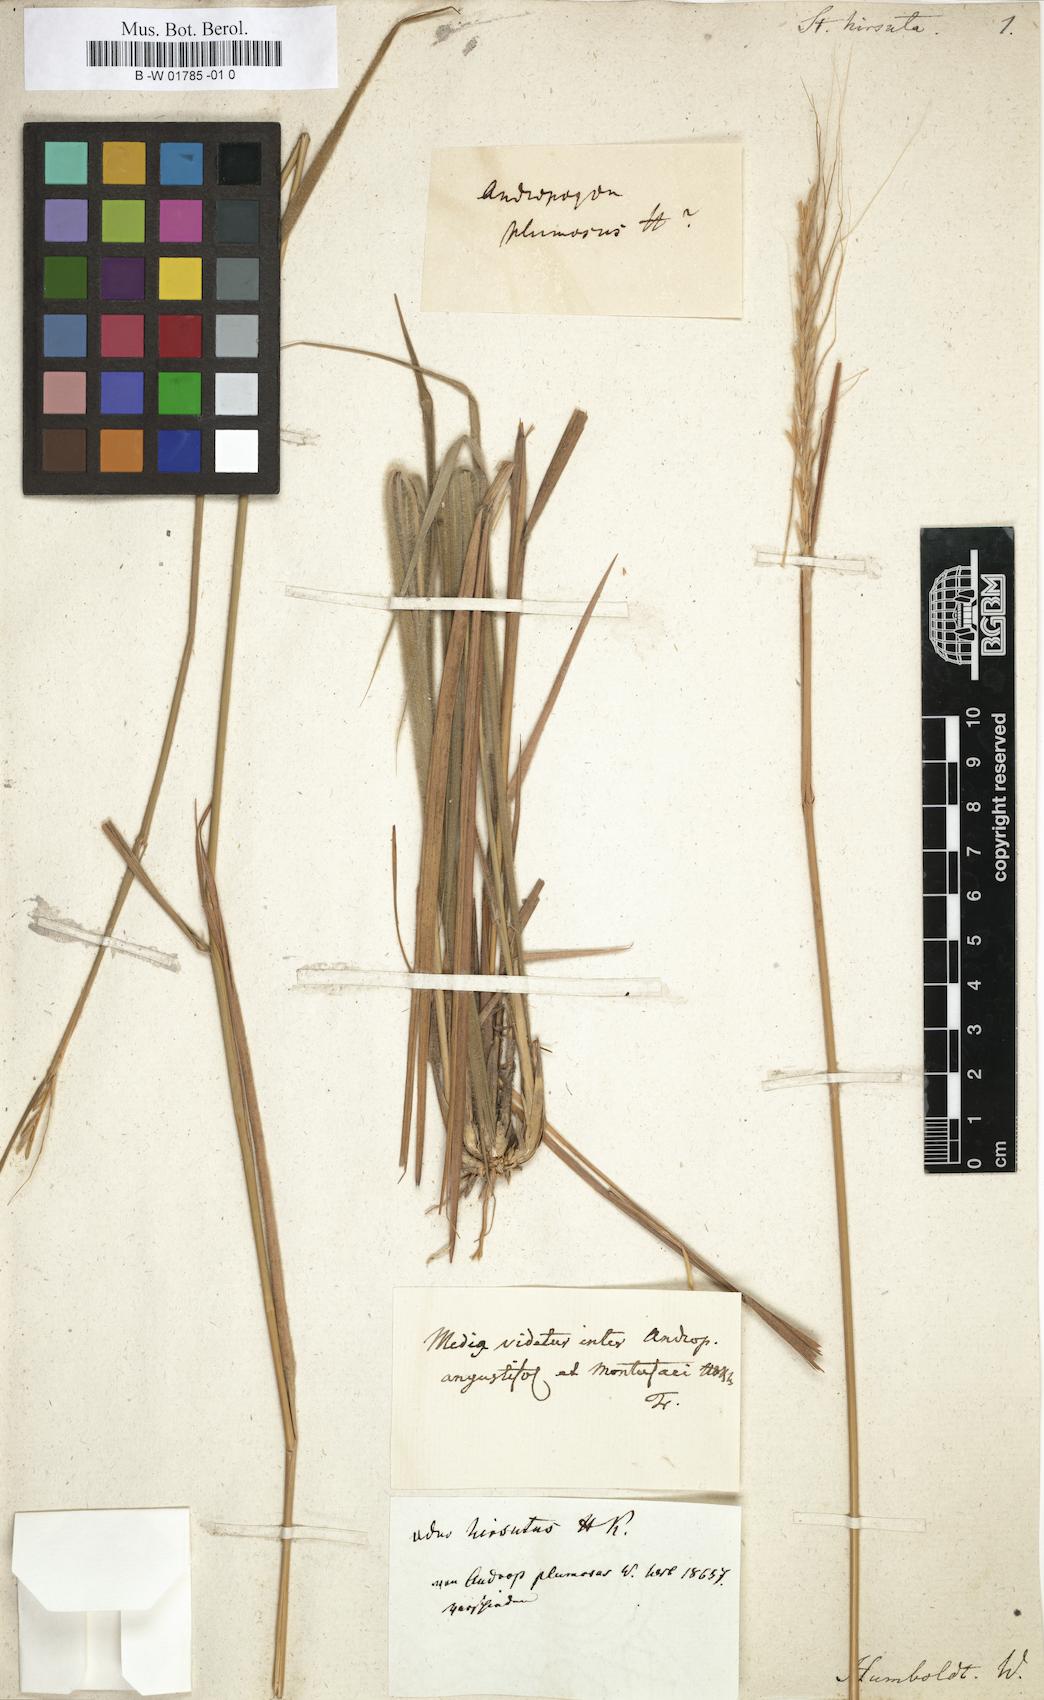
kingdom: Plantae
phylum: Tracheophyta
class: Liliopsida
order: Poales
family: Poaceae
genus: Austrostipa
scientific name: Austrostipa flavescens
